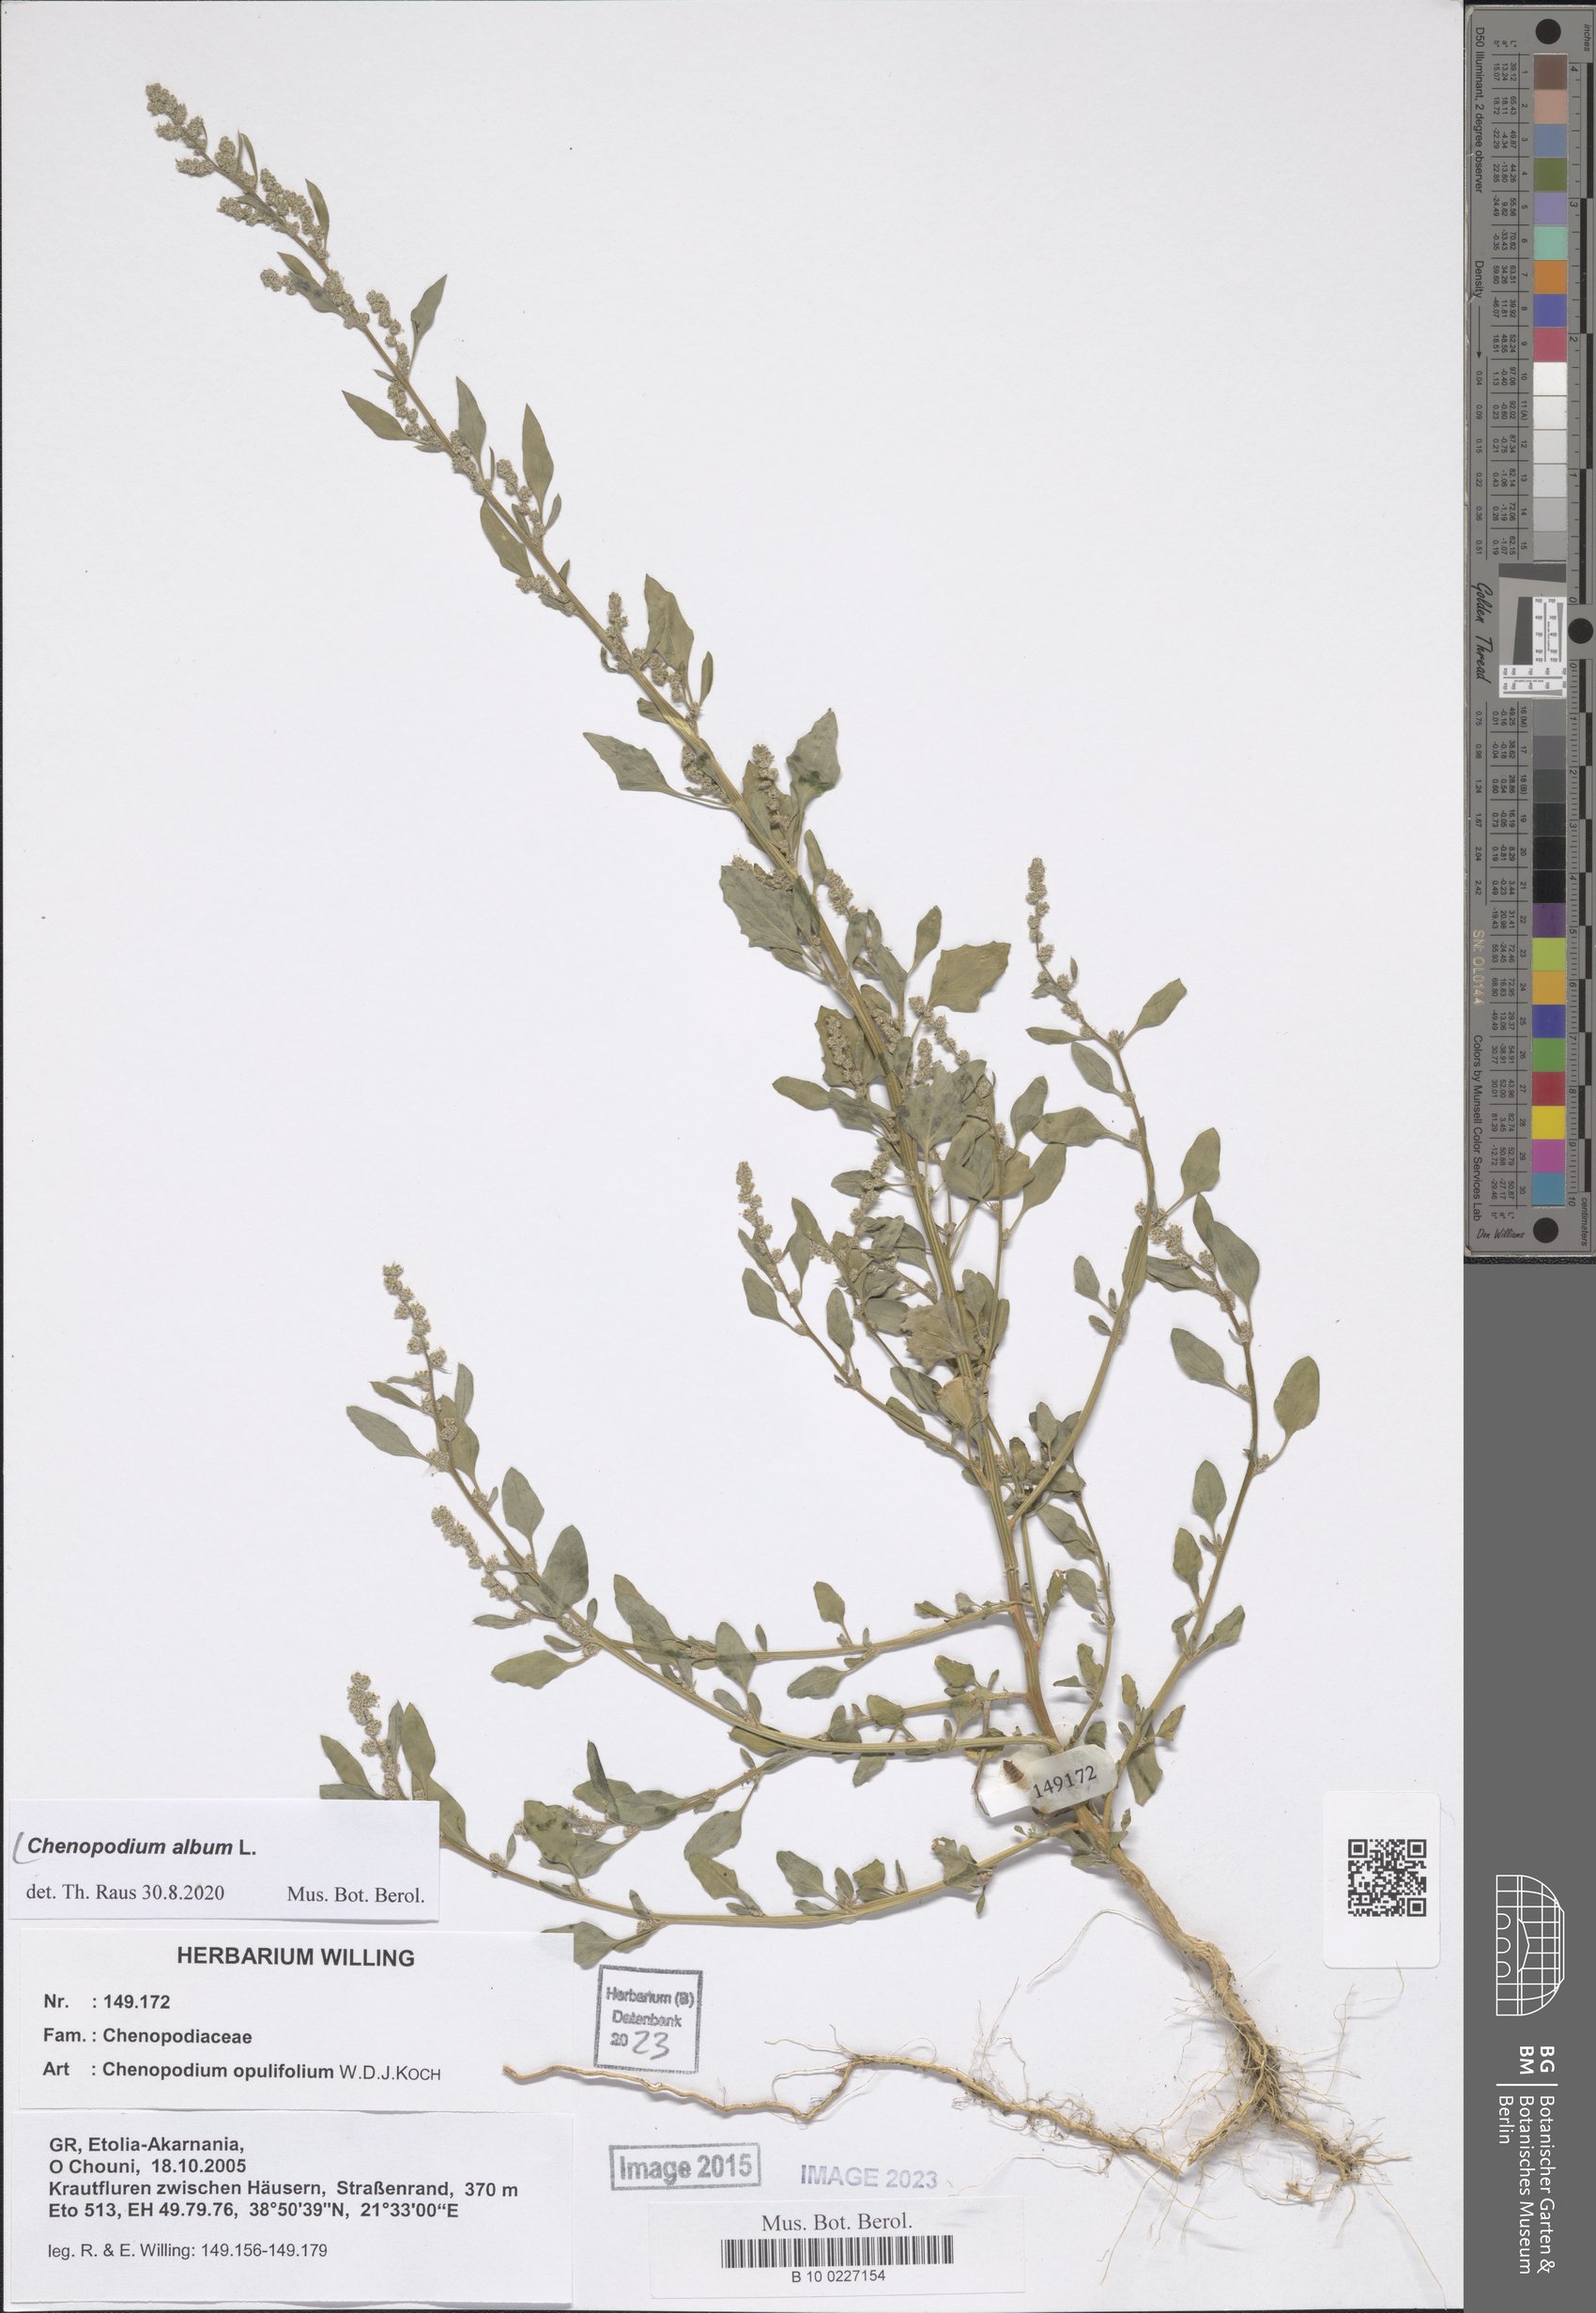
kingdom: Plantae
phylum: Tracheophyta
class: Magnoliopsida
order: Caryophyllales
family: Amaranthaceae
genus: Chenopodium
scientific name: Chenopodium album
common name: Fat-hen
